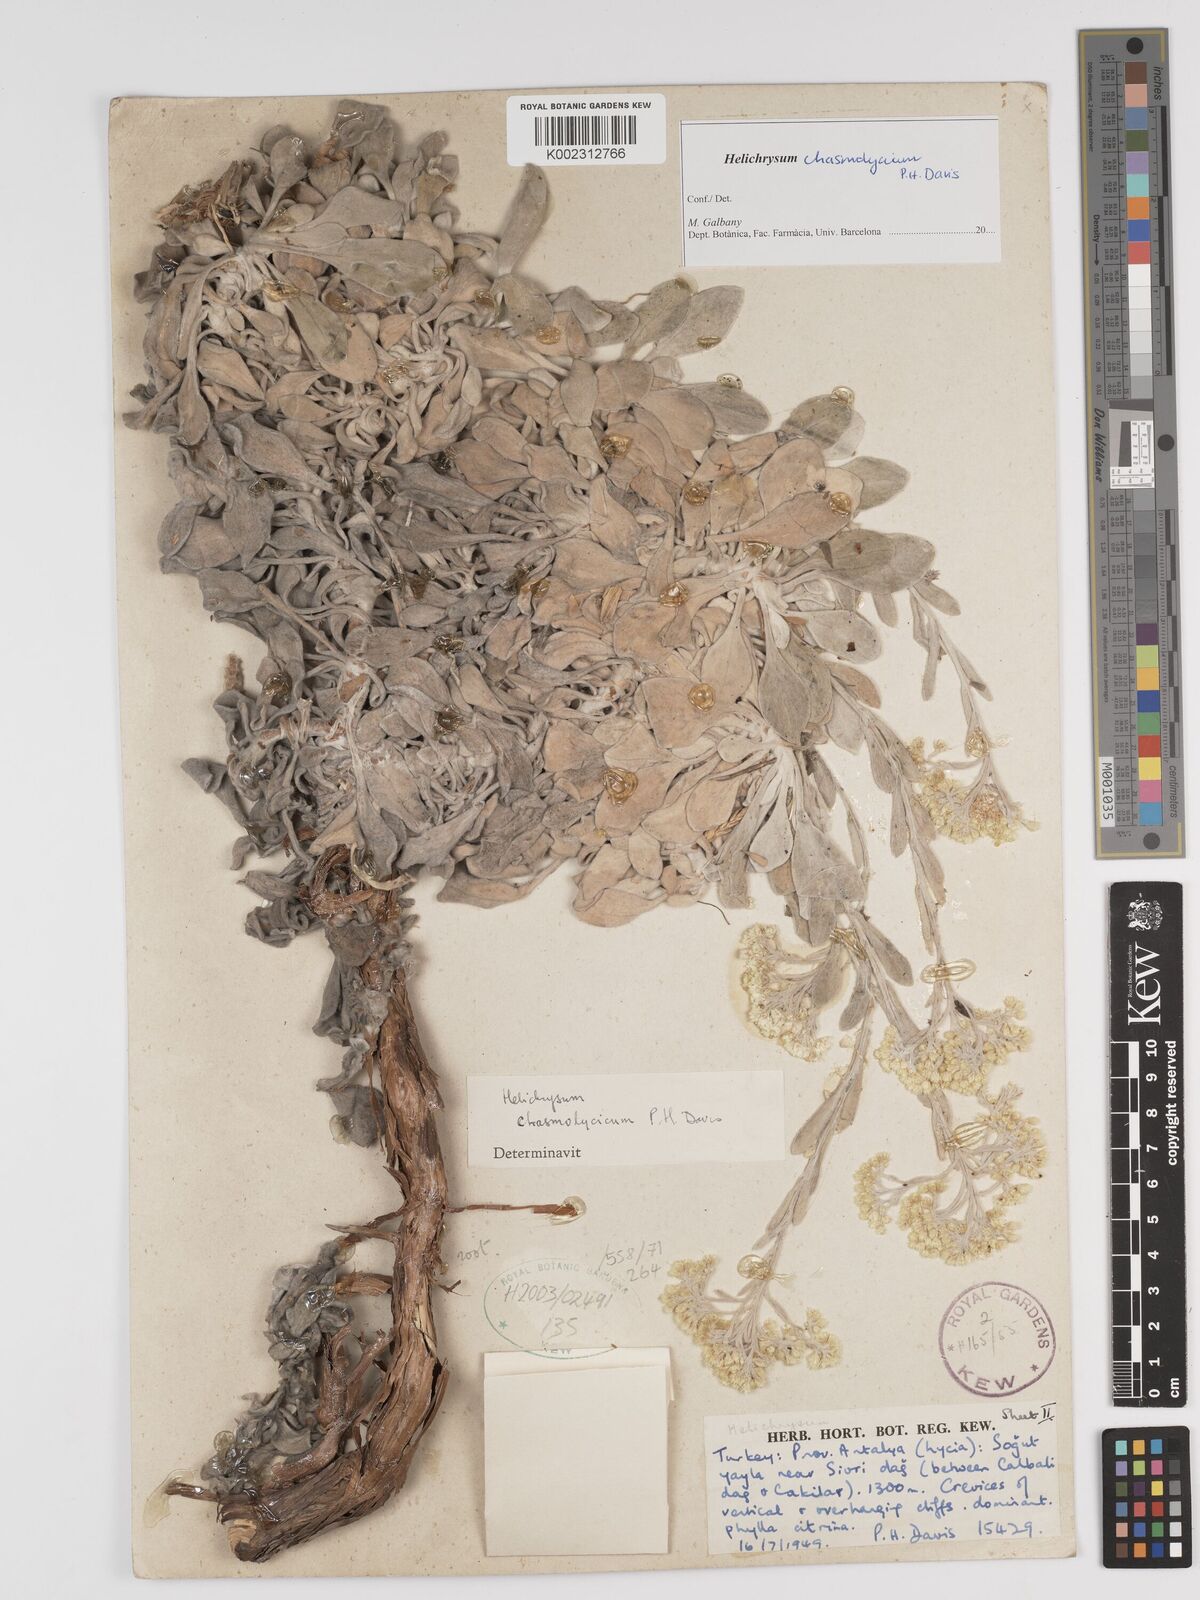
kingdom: Plantae
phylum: Tracheophyta
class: Magnoliopsida
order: Asterales
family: Asteraceae
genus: Helichrysum
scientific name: Helichrysum chasmolycium
